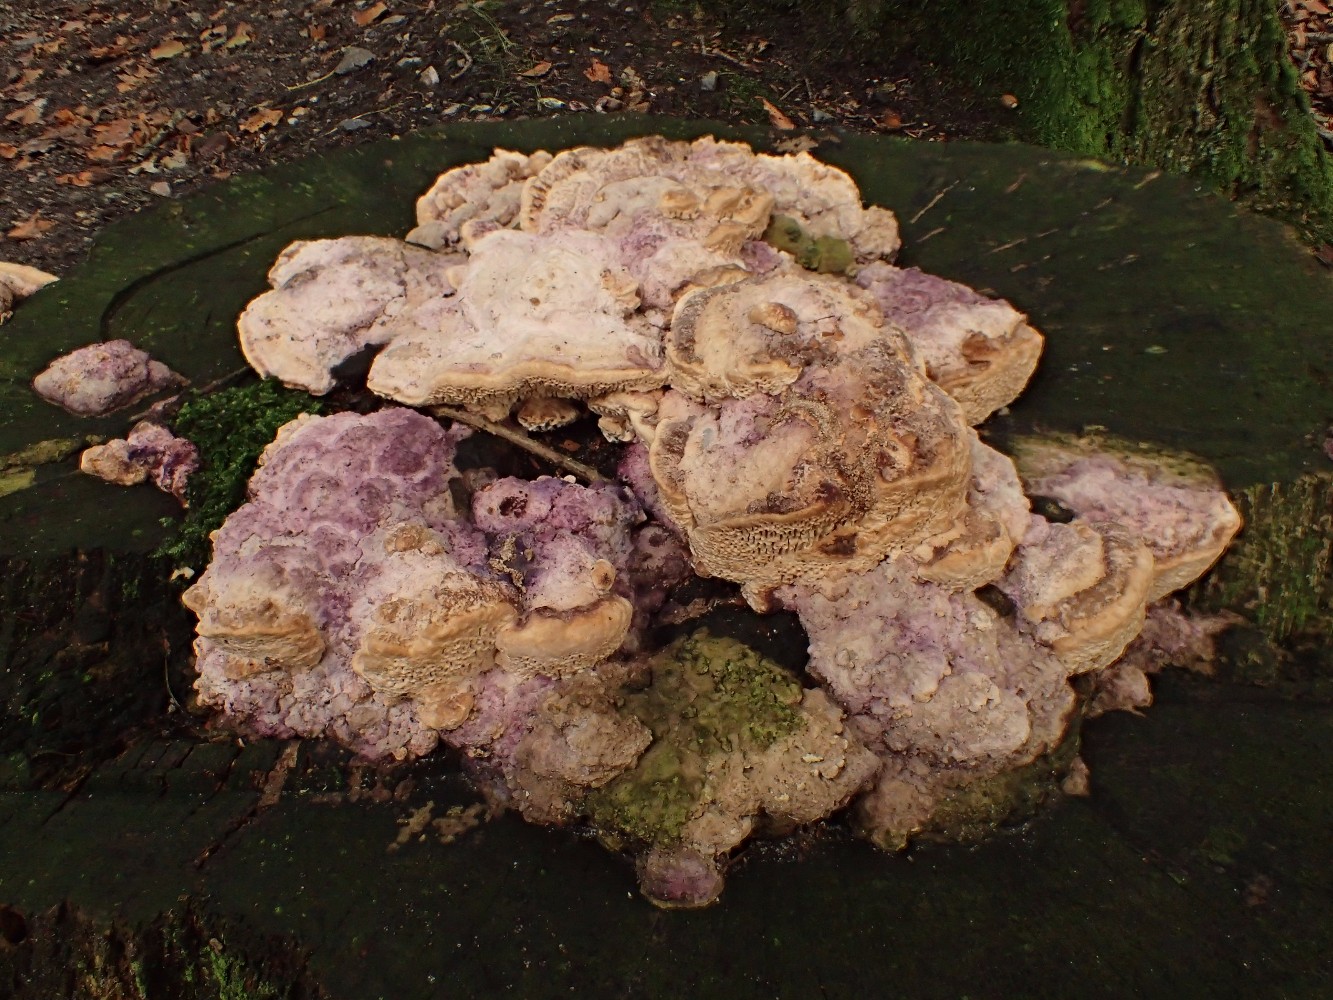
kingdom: Fungi
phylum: Basidiomycota
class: Agaricomycetes
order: Polyporales
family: Fomitopsidaceae
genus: Daedalea
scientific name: Daedalea quercina
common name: ege-labyrintsvamp
